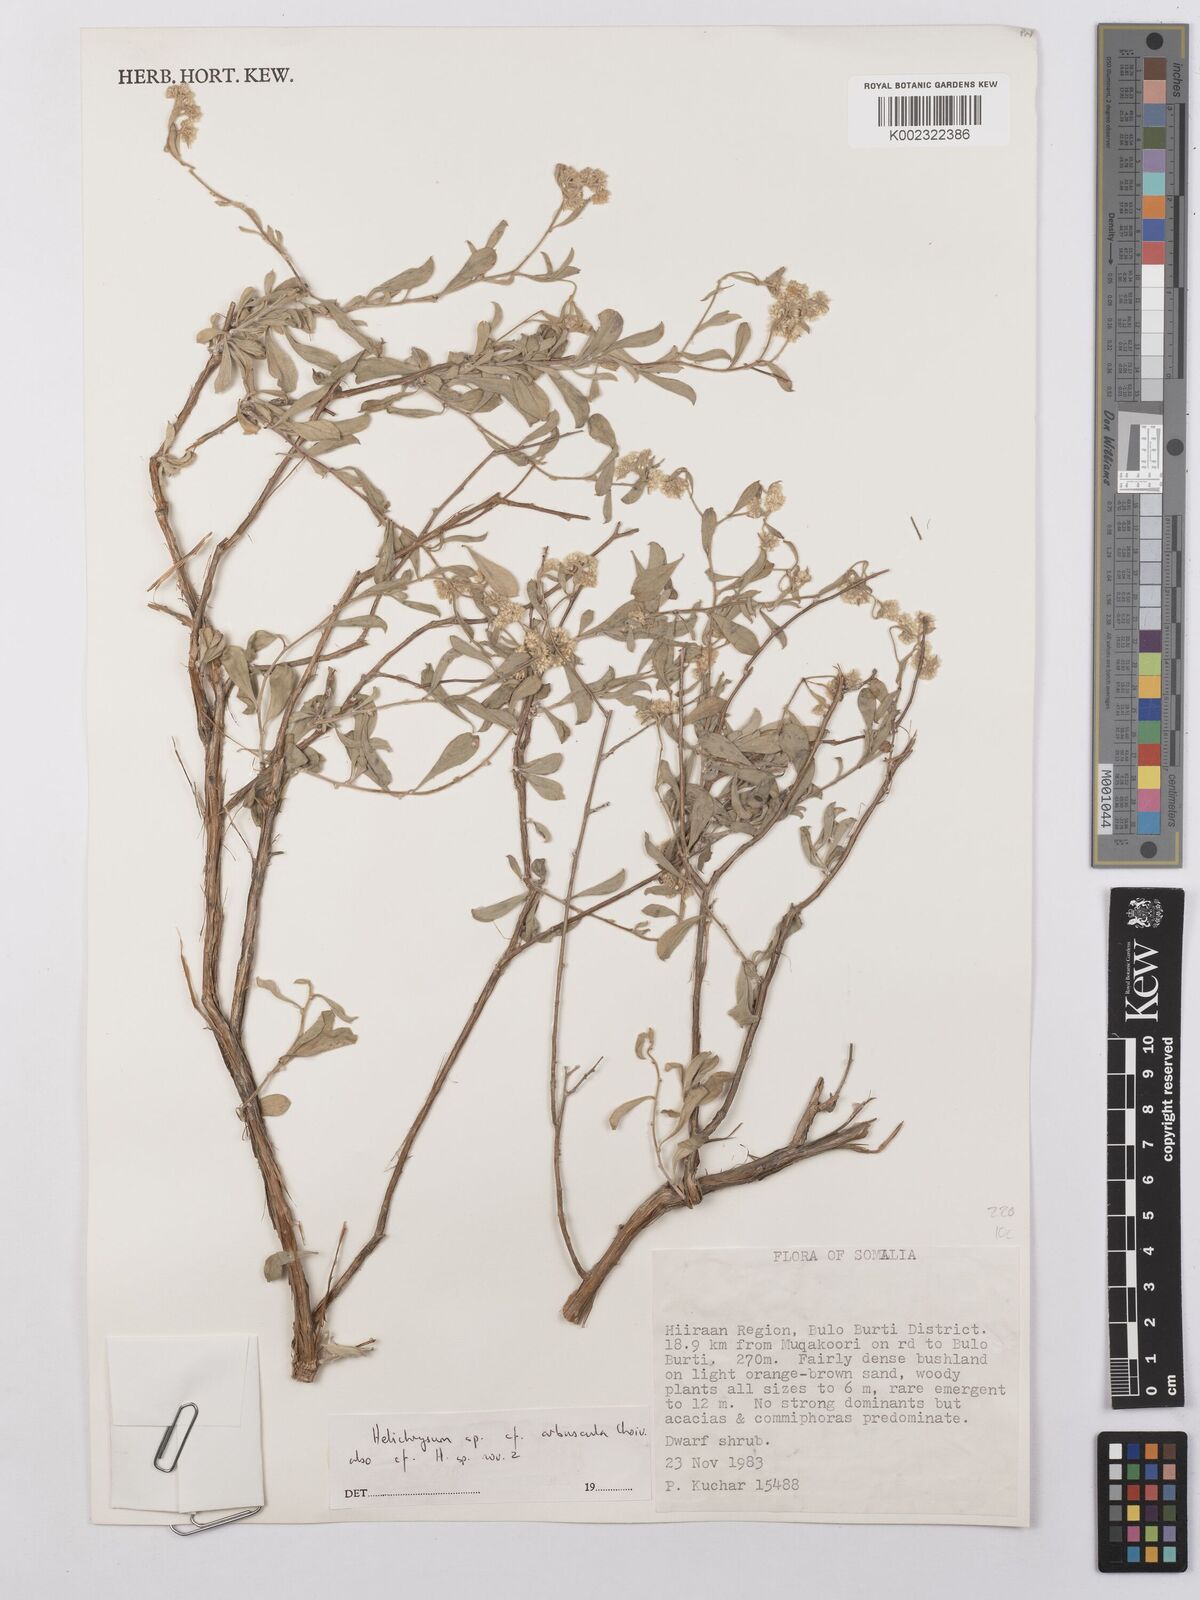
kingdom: Plantae
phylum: Tracheophyta
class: Magnoliopsida
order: Asterales
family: Asteraceae
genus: Helichrysum
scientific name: Helichrysum arbuscula
